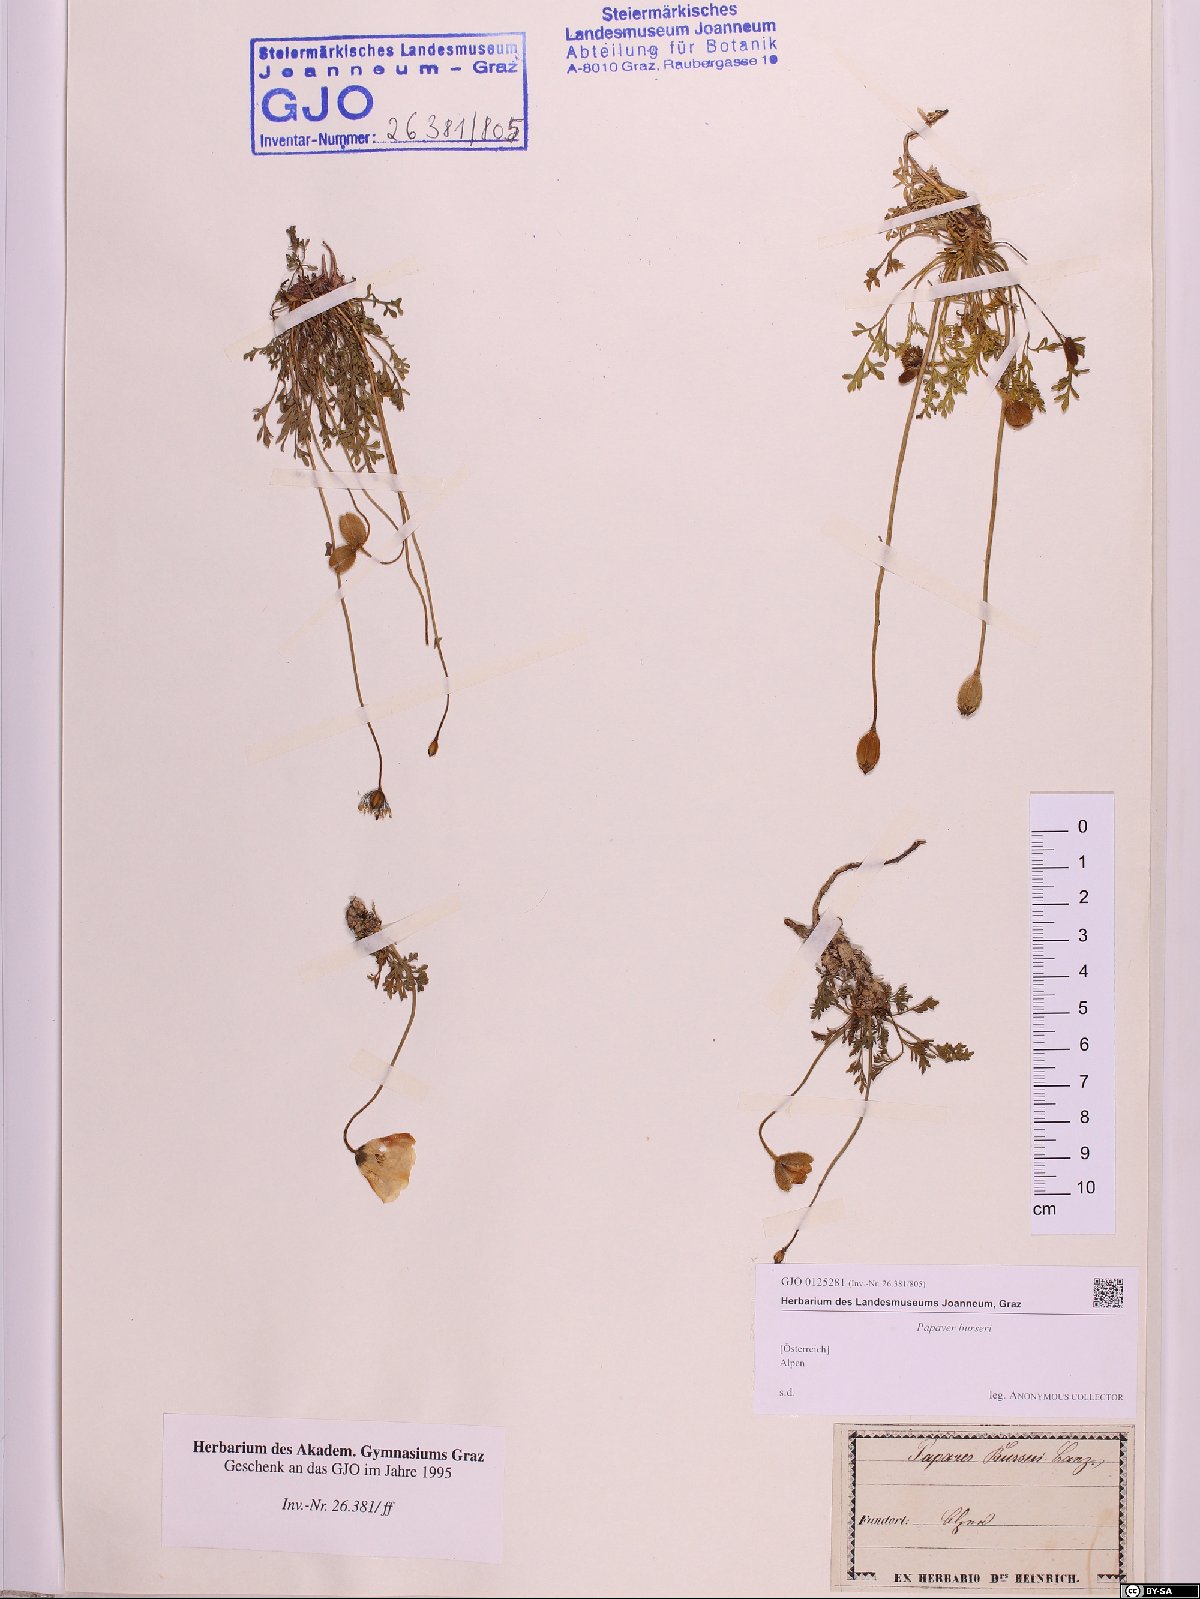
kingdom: Plantae
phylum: Tracheophyta
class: Magnoliopsida
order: Ranunculales
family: Papaveraceae
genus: Papaver
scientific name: Papaver alpinum
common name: Austrian poppy
